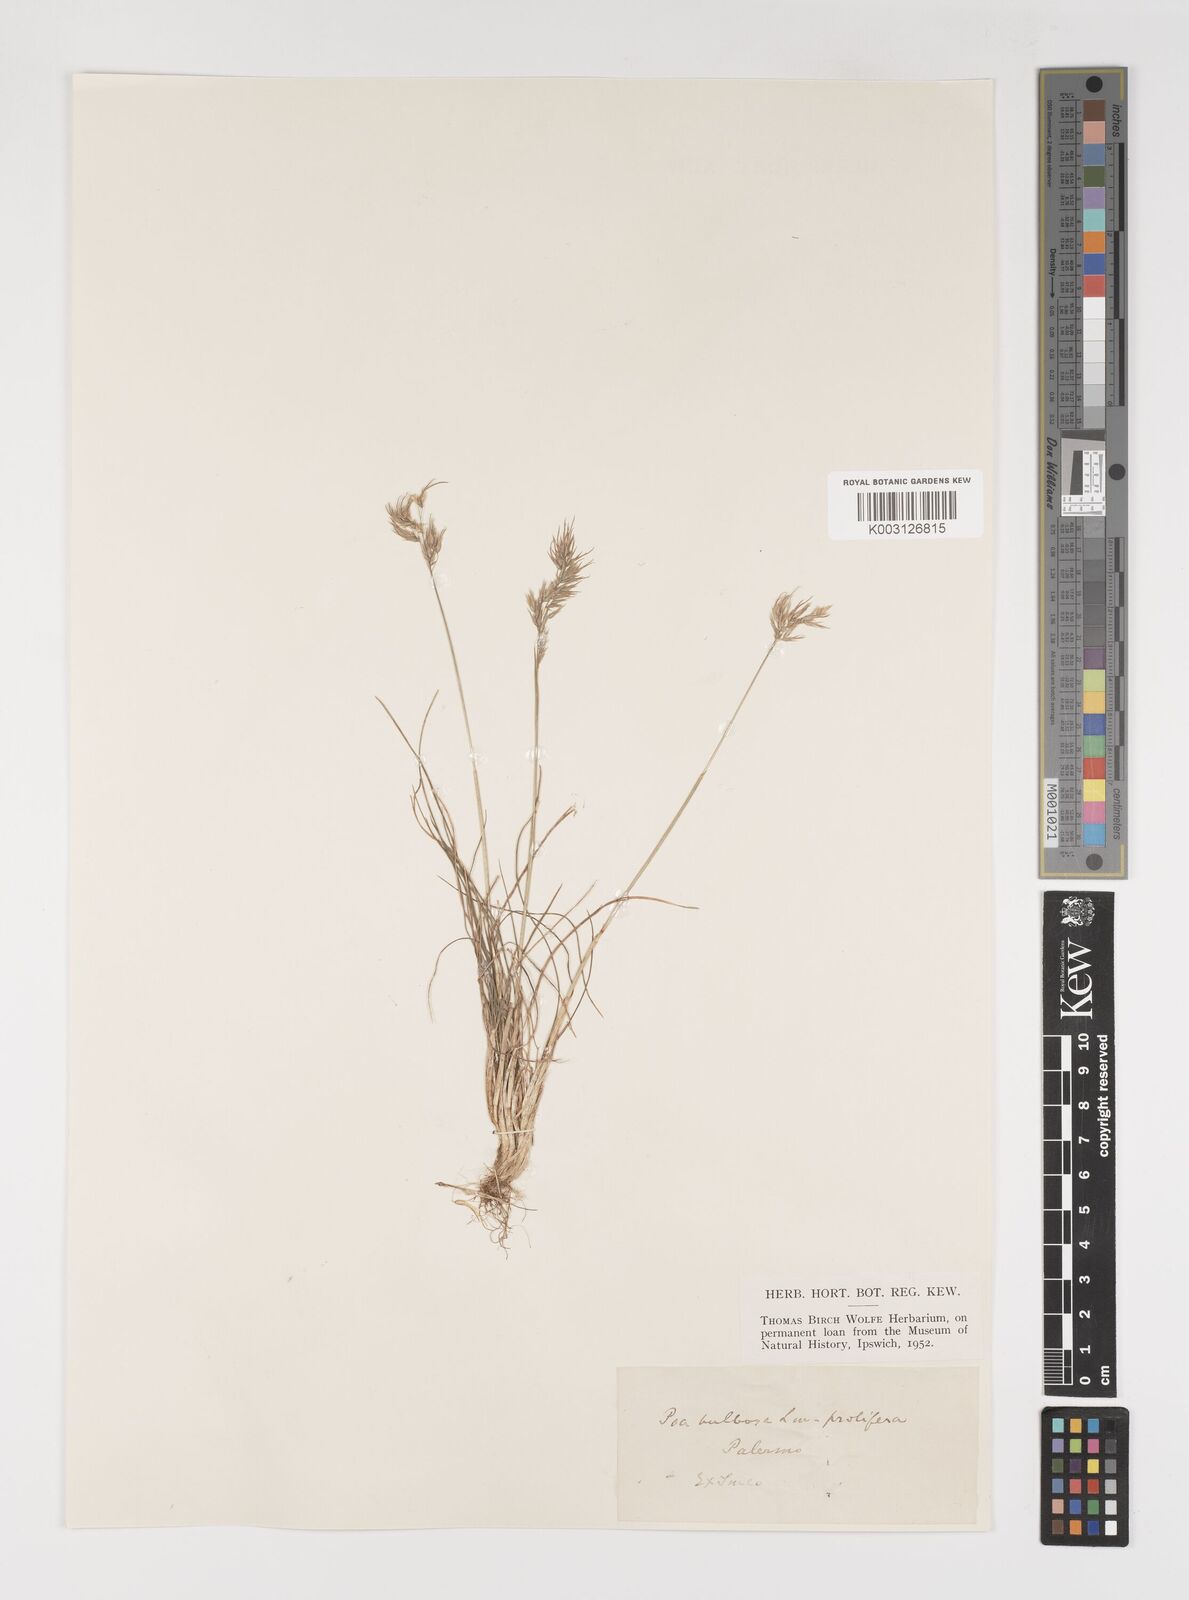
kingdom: Plantae
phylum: Tracheophyta
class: Liliopsida
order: Poales
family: Poaceae
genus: Poa
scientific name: Poa bulbosa
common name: Bulbous bluegrass
